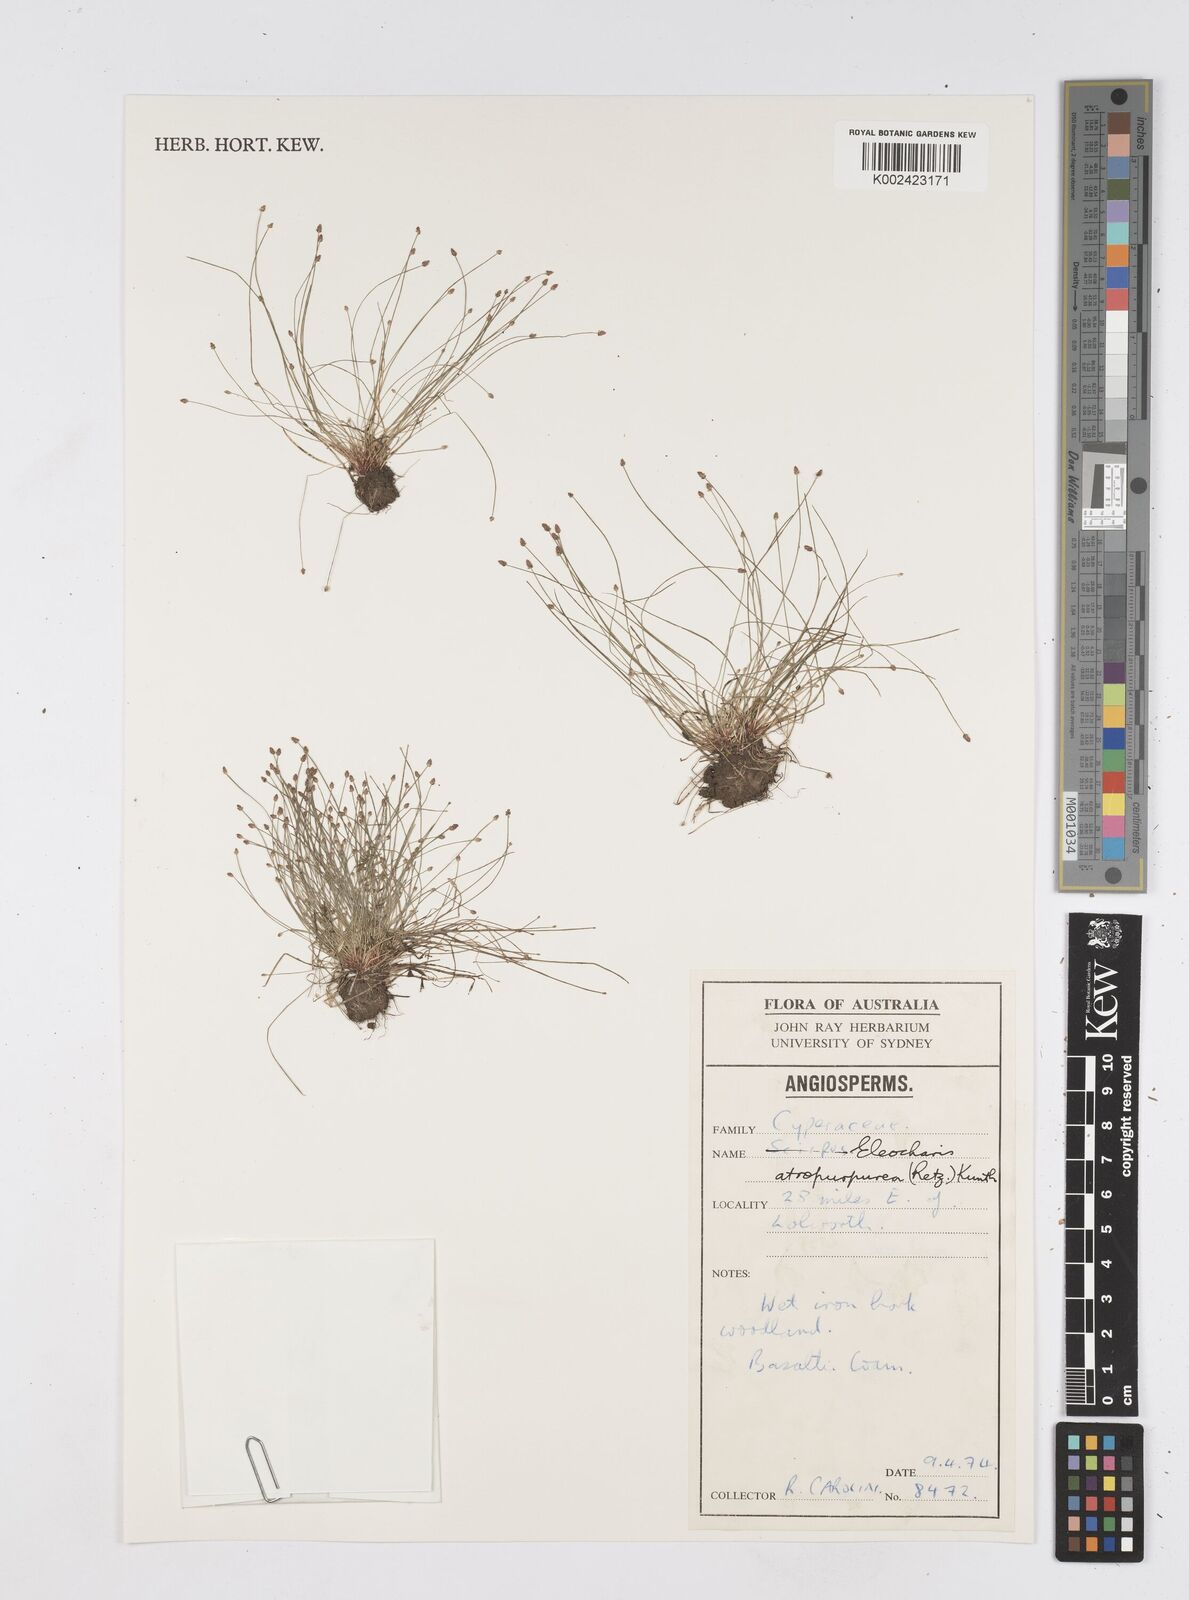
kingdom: Plantae
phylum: Tracheophyta
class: Liliopsida
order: Poales
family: Cyperaceae
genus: Eleocharis
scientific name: Eleocharis atropurpurea
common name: Purple spikerush
